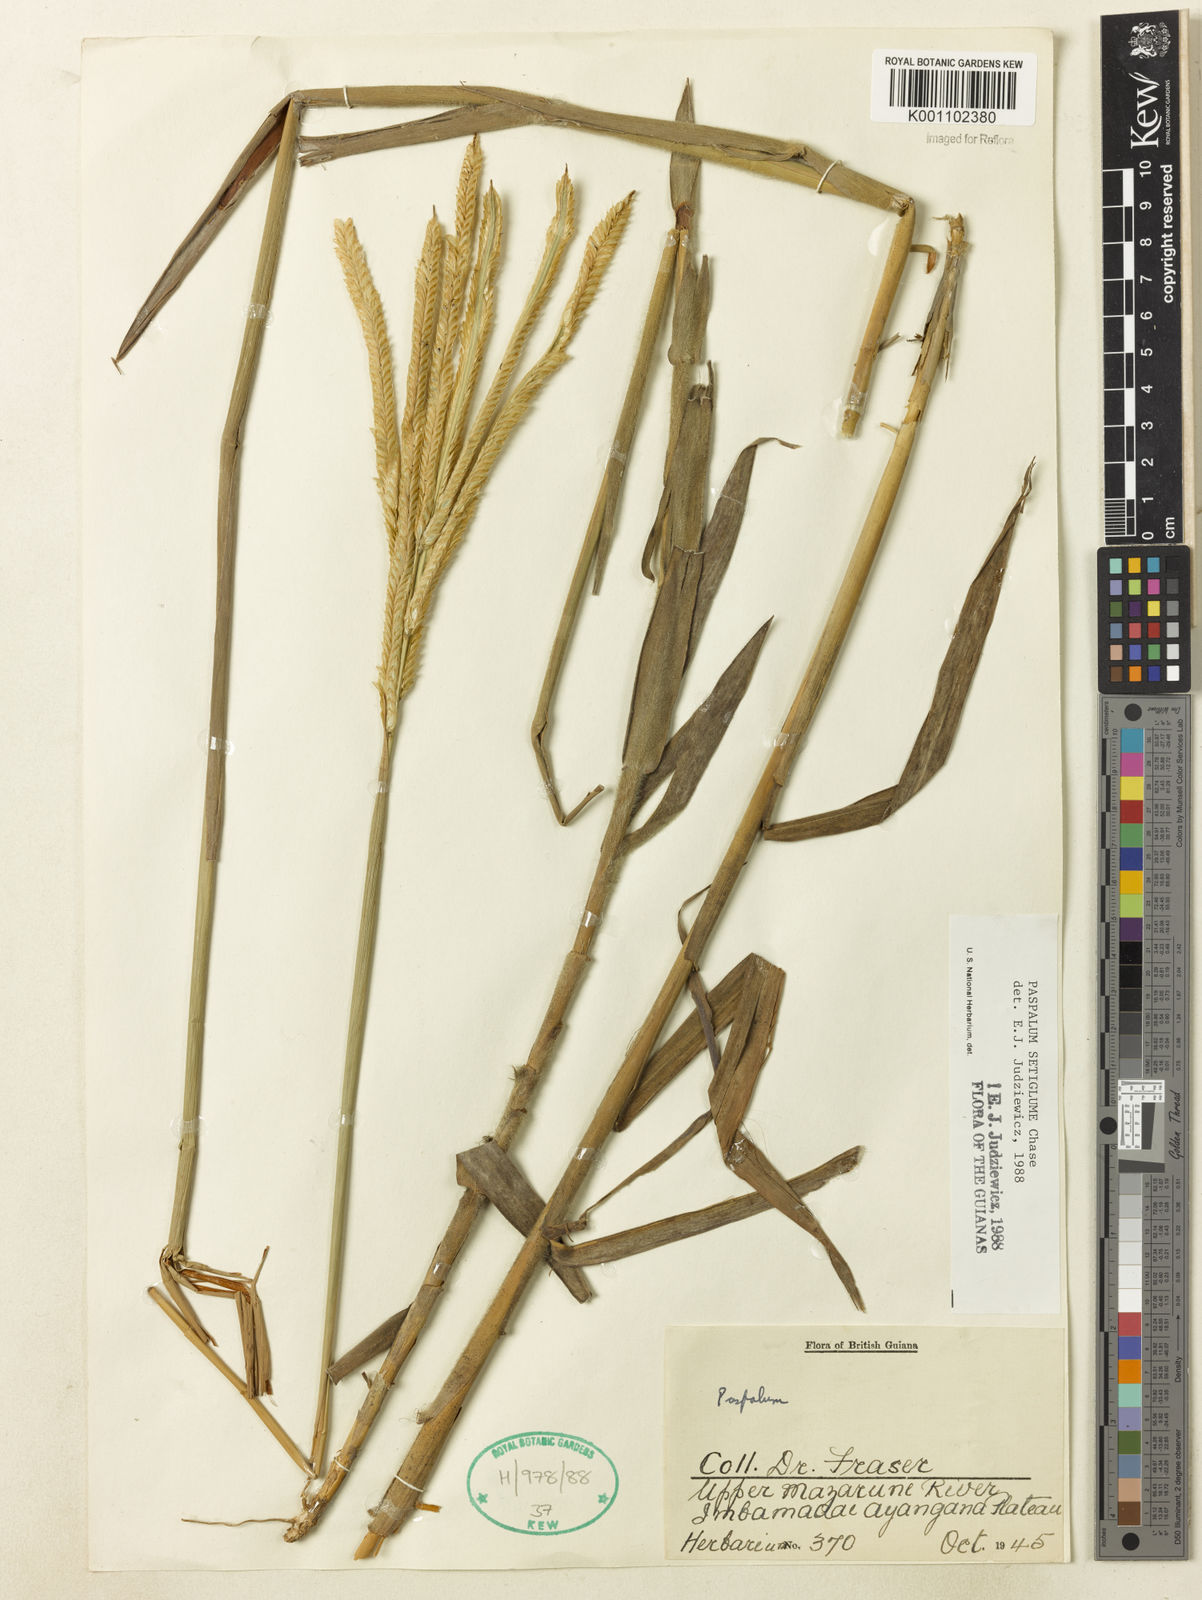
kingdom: Plantae
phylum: Tracheophyta
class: Liliopsida
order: Poales
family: Poaceae
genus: Paspalum
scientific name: Paspalum aspidiotes
